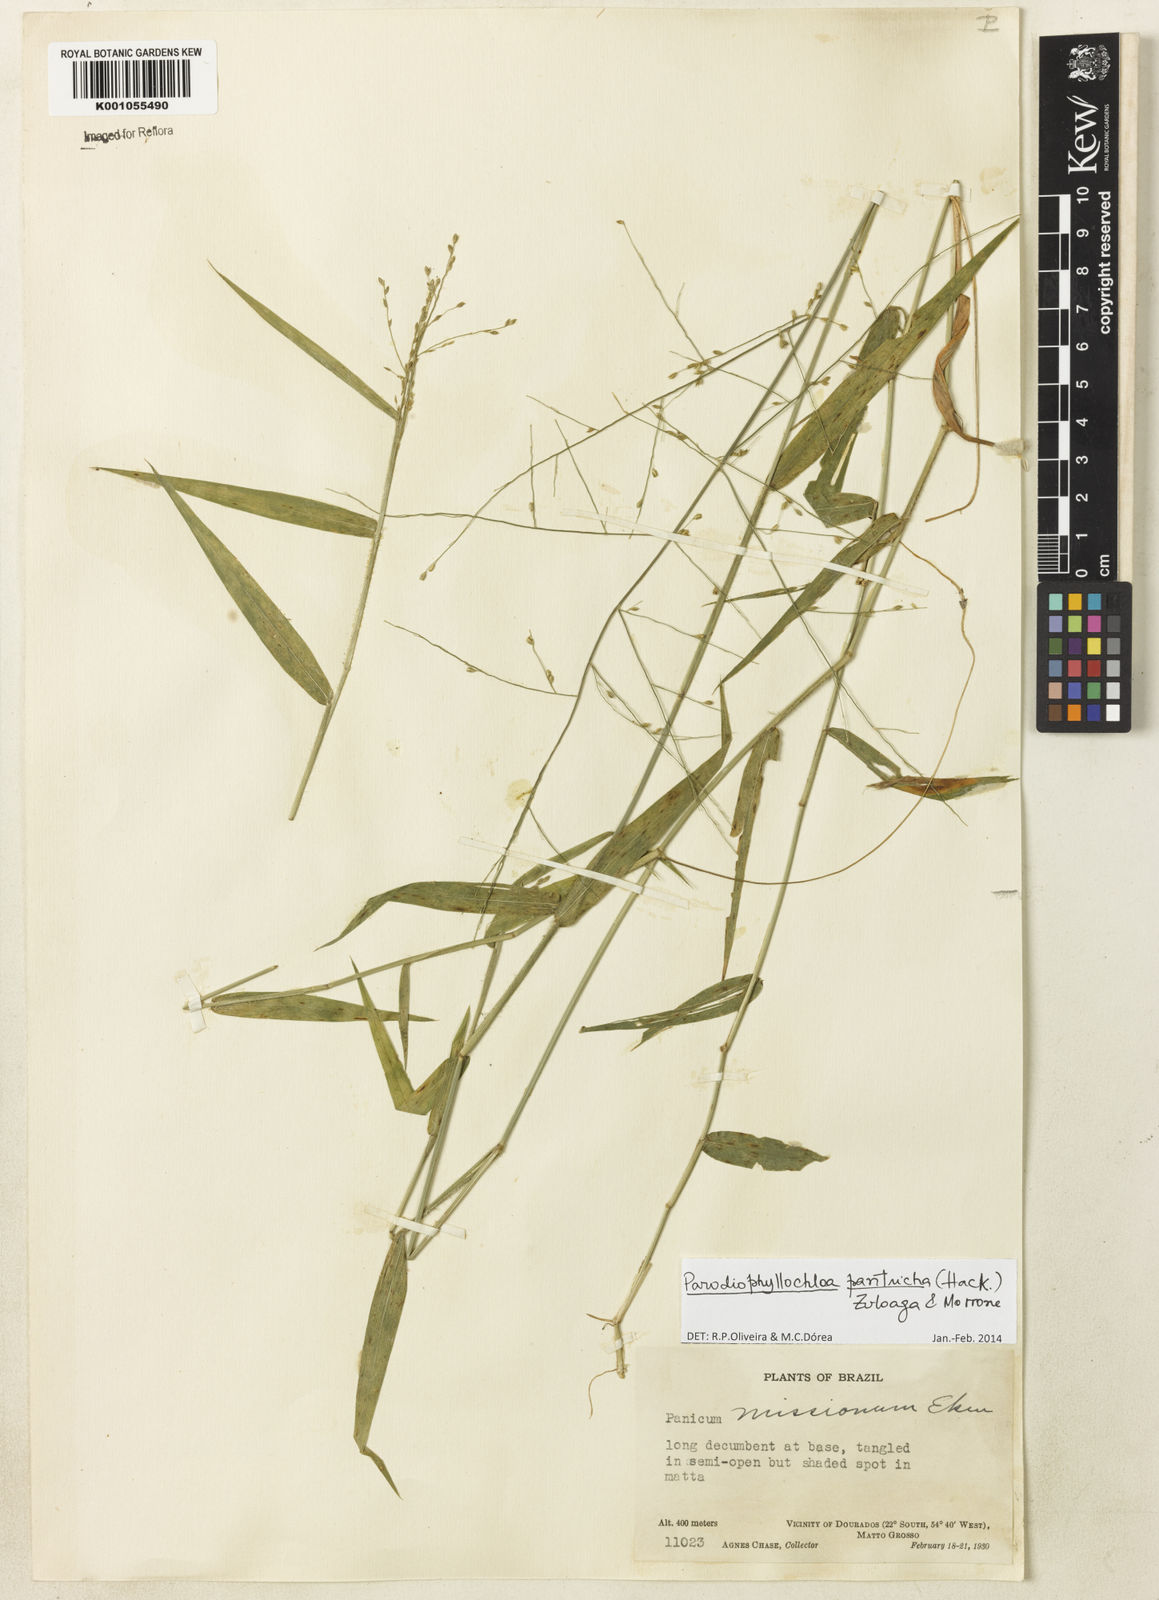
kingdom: Plantae
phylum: Tracheophyta
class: Liliopsida
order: Poales
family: Poaceae
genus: Parodiophyllochloa
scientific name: Parodiophyllochloa pantricha
